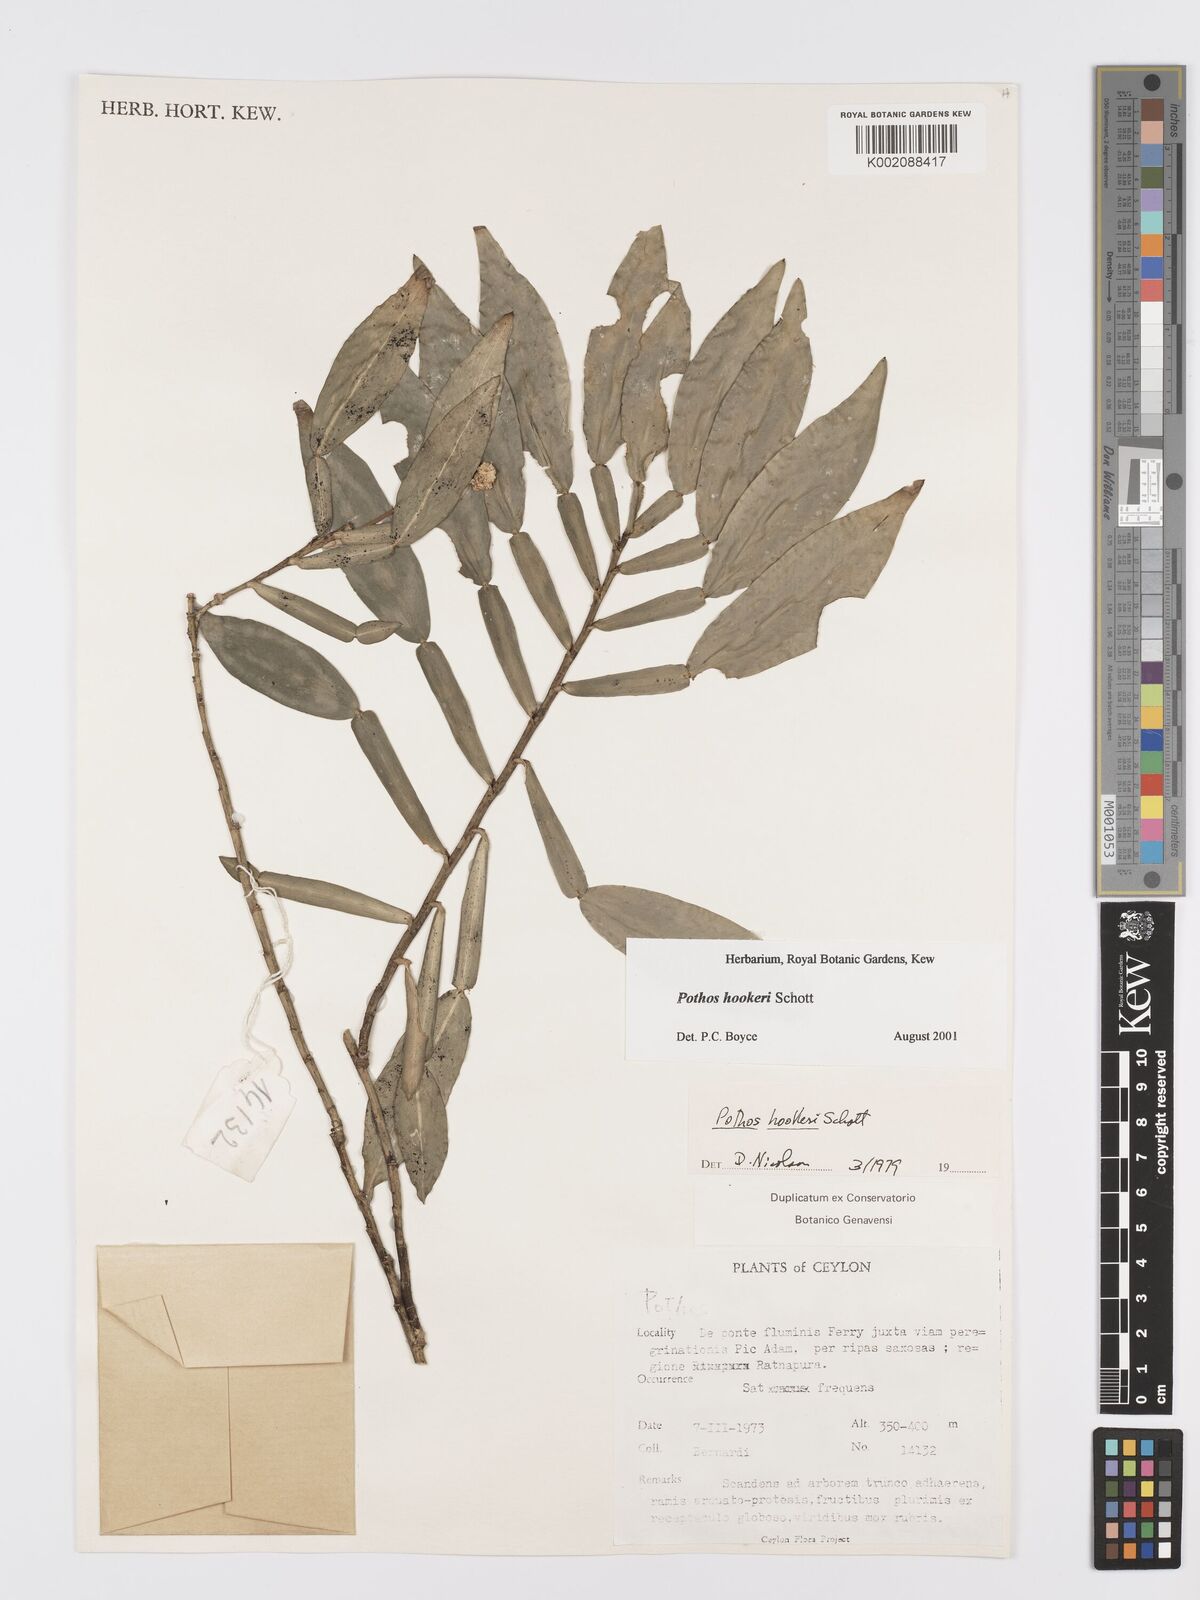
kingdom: Plantae
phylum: Tracheophyta
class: Liliopsida
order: Alismatales
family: Araceae
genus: Pothos
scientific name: Pothos hookeri
